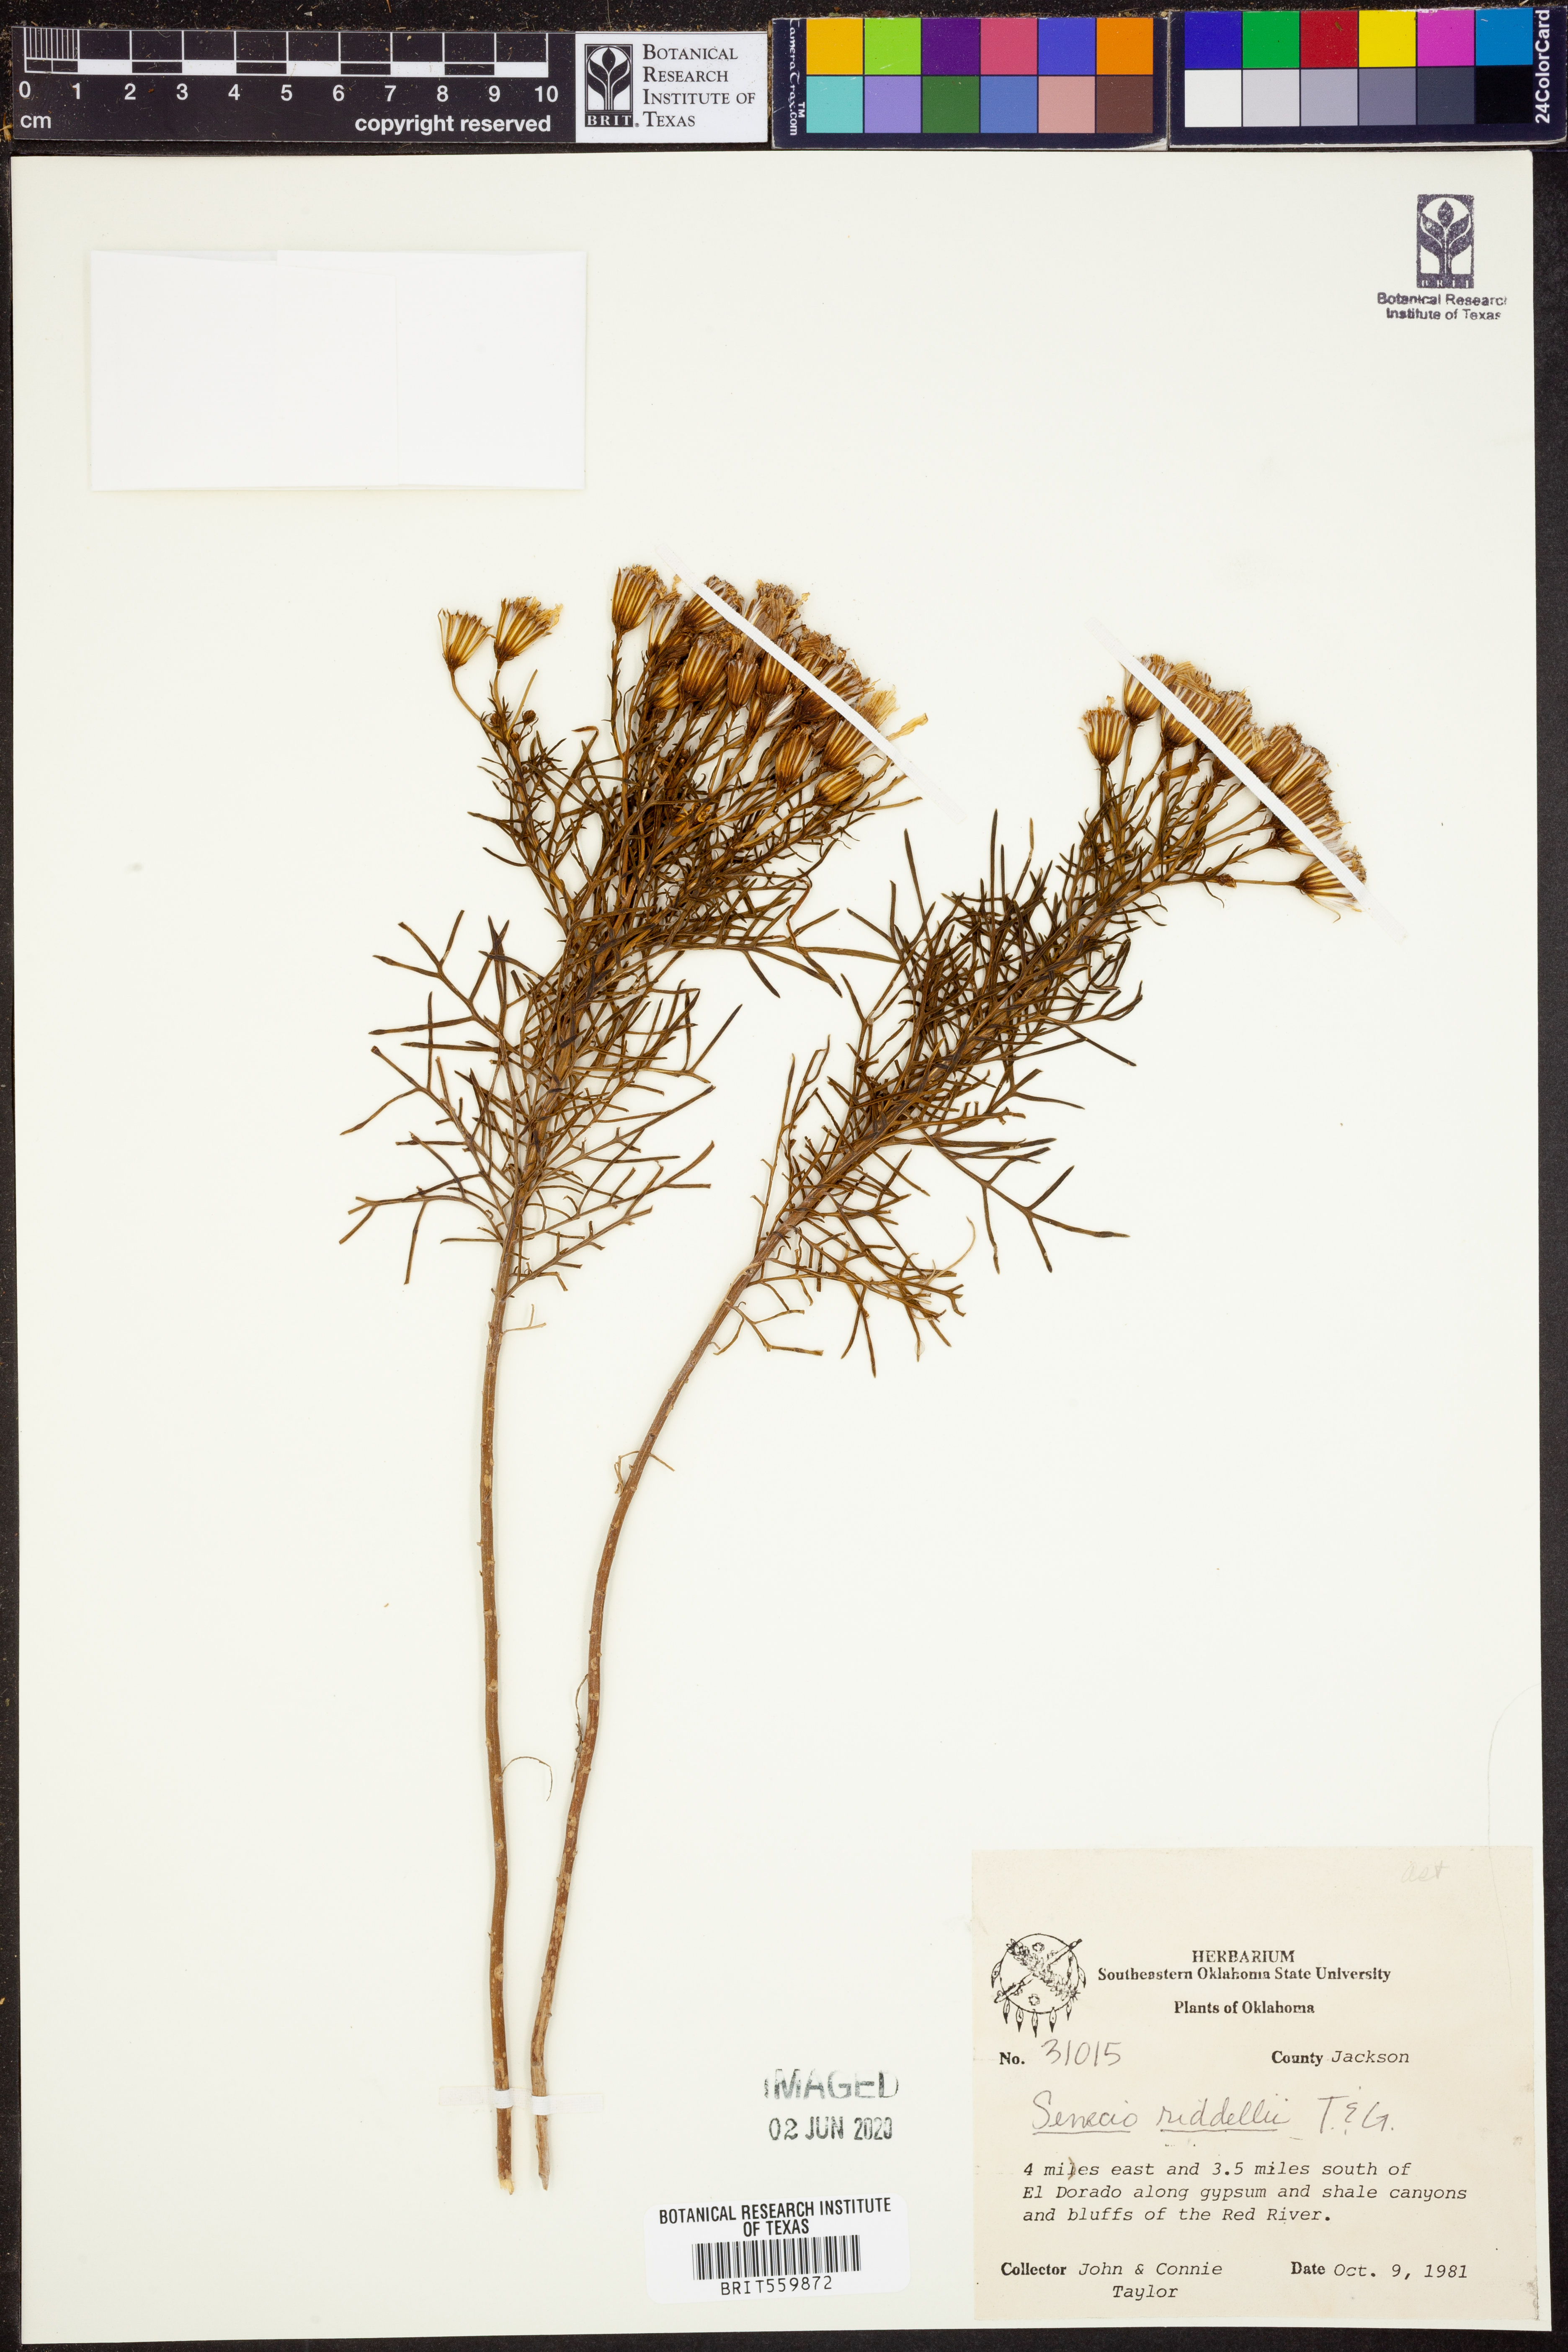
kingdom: Plantae
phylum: Tracheophyta
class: Magnoliopsida
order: Asterales
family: Asteraceae
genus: Senecio
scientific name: Senecio riddellii
